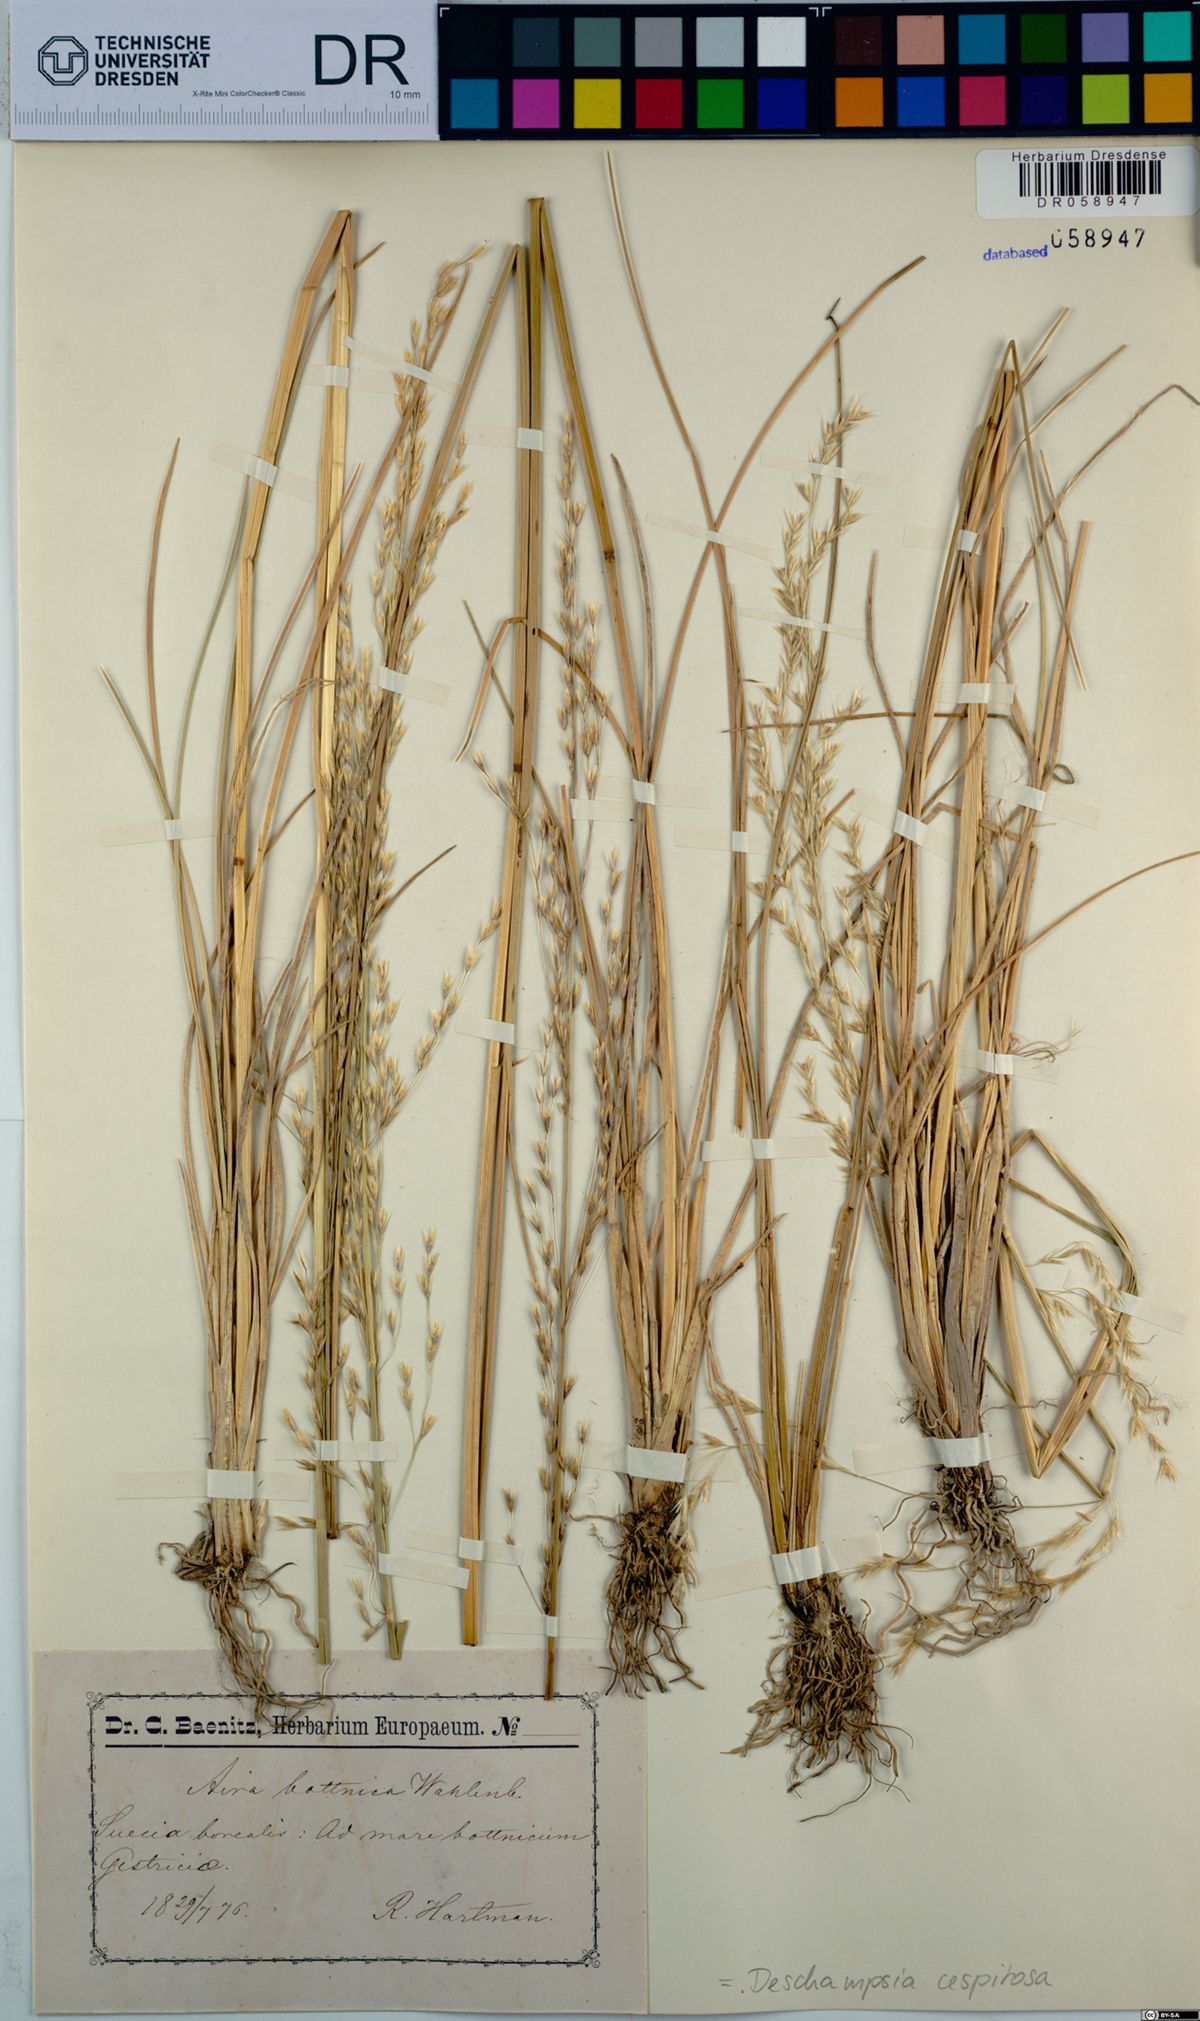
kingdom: Plantae
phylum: Tracheophyta
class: Liliopsida
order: Poales
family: Poaceae
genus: Deschampsia
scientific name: Deschampsia cespitosa
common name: Tufted hair-grass
